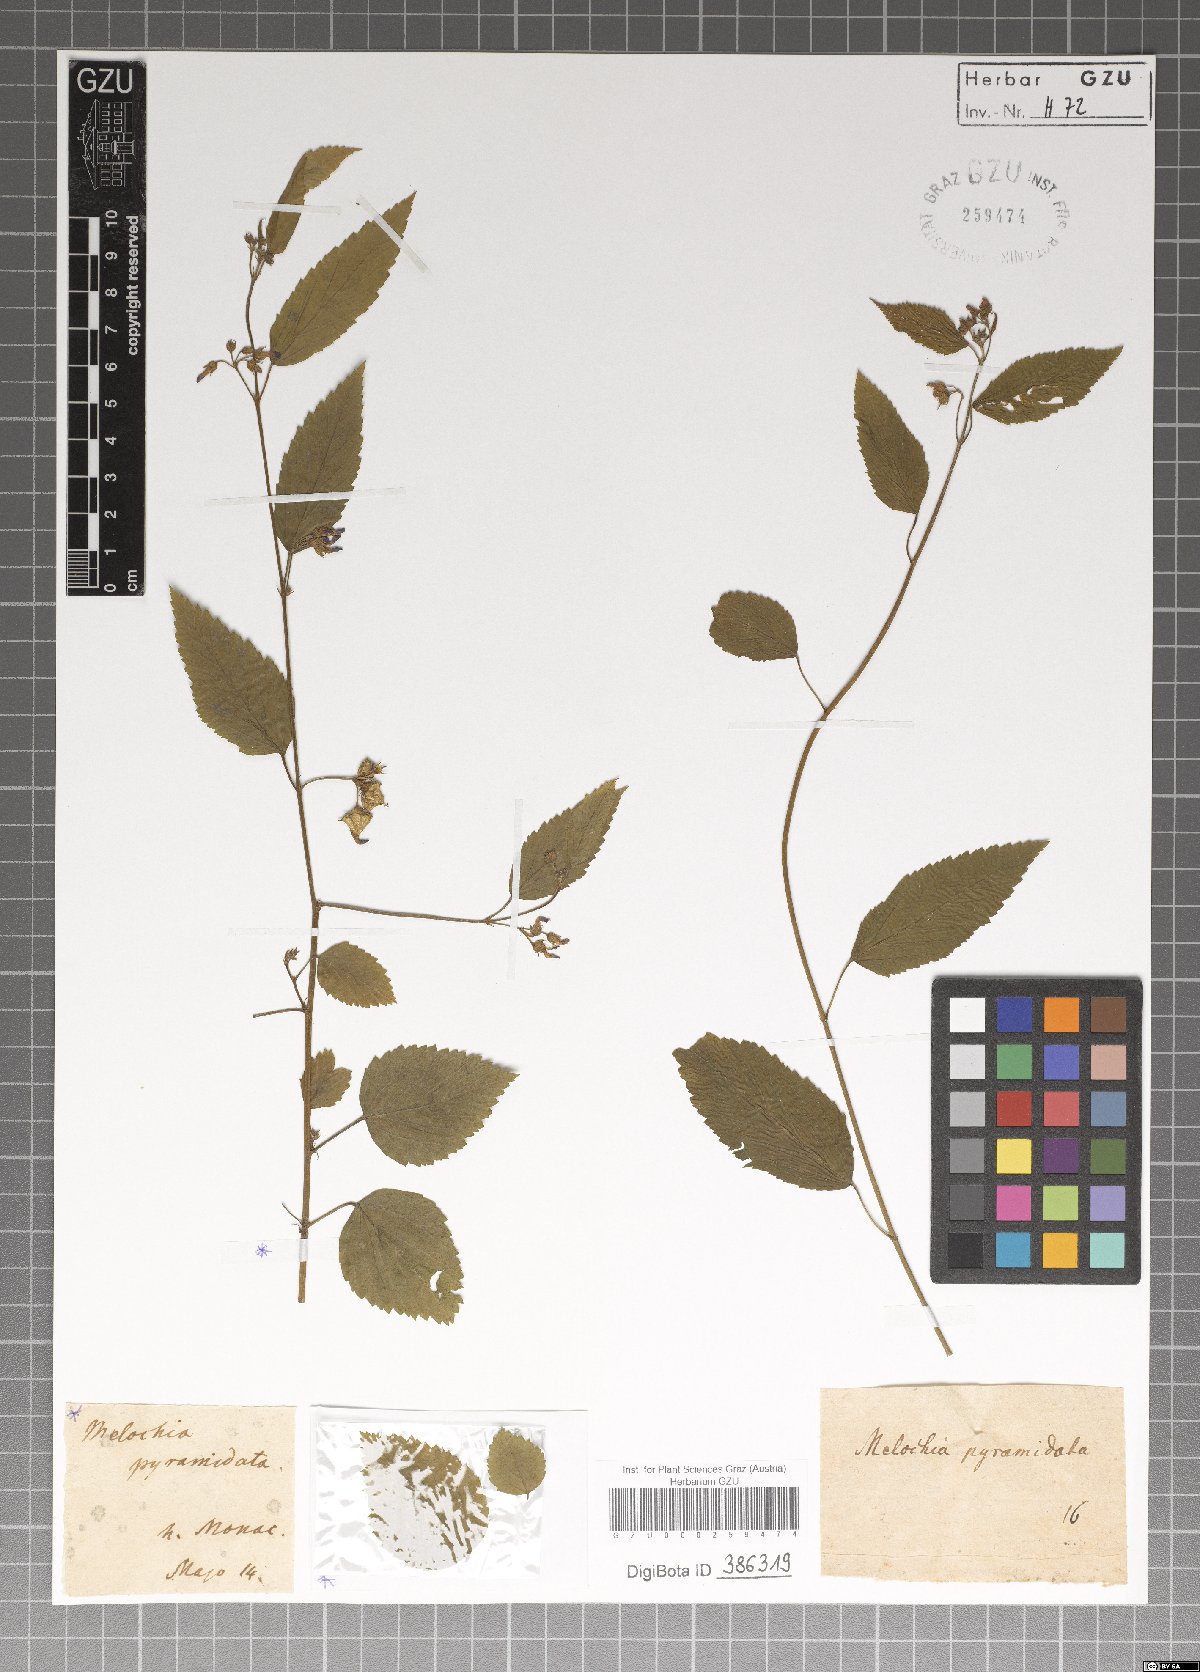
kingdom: Plantae
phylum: Tracheophyta
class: Magnoliopsida
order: Malvales
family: Malvaceae
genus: Melochia
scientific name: Melochia pyramidata
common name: Pyramidflower
